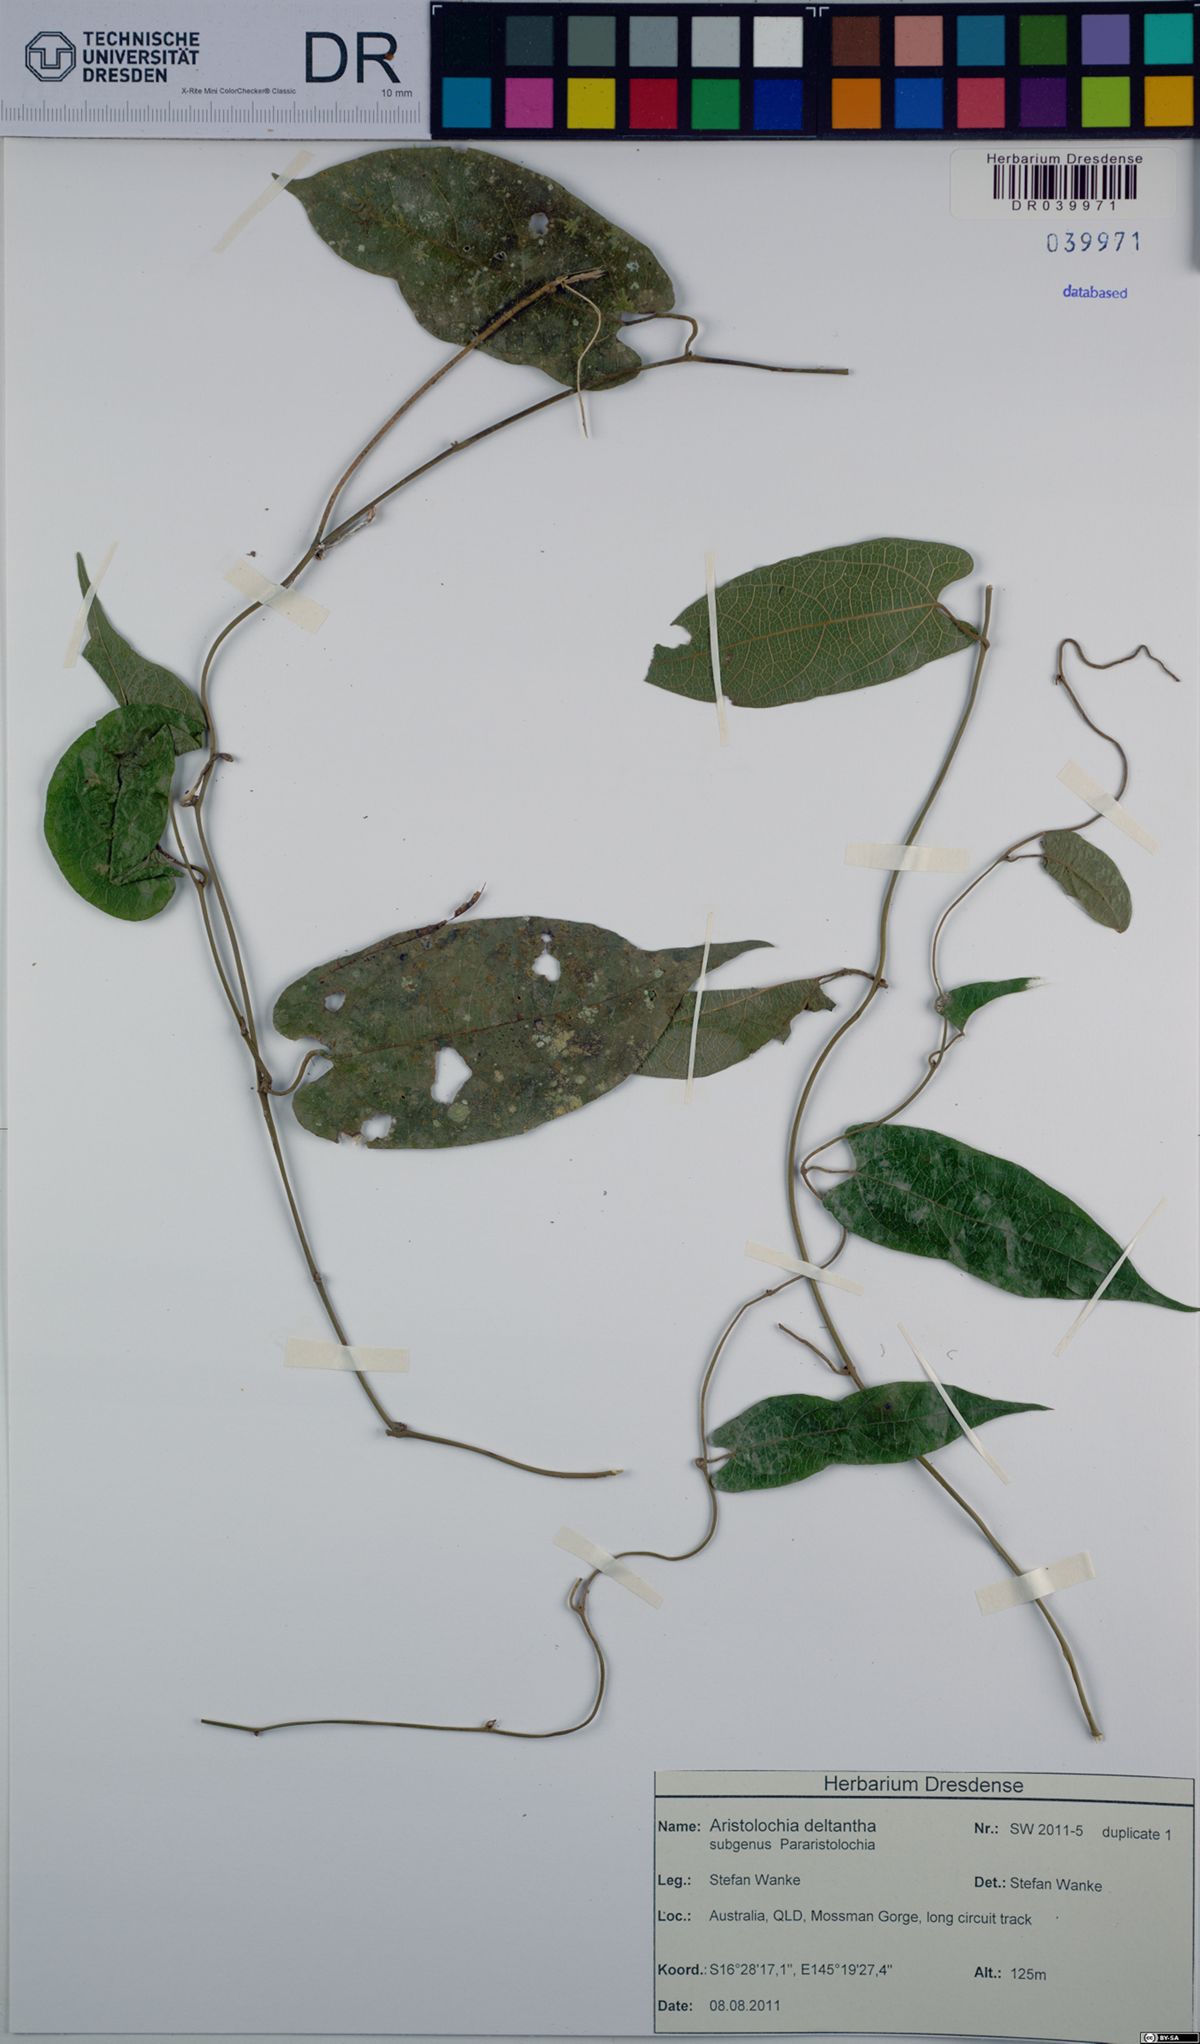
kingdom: Plantae
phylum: Tracheophyta
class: Magnoliopsida
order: Piperales
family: Aristolochiaceae
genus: Aristolochia
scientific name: Aristolochia deltantha
